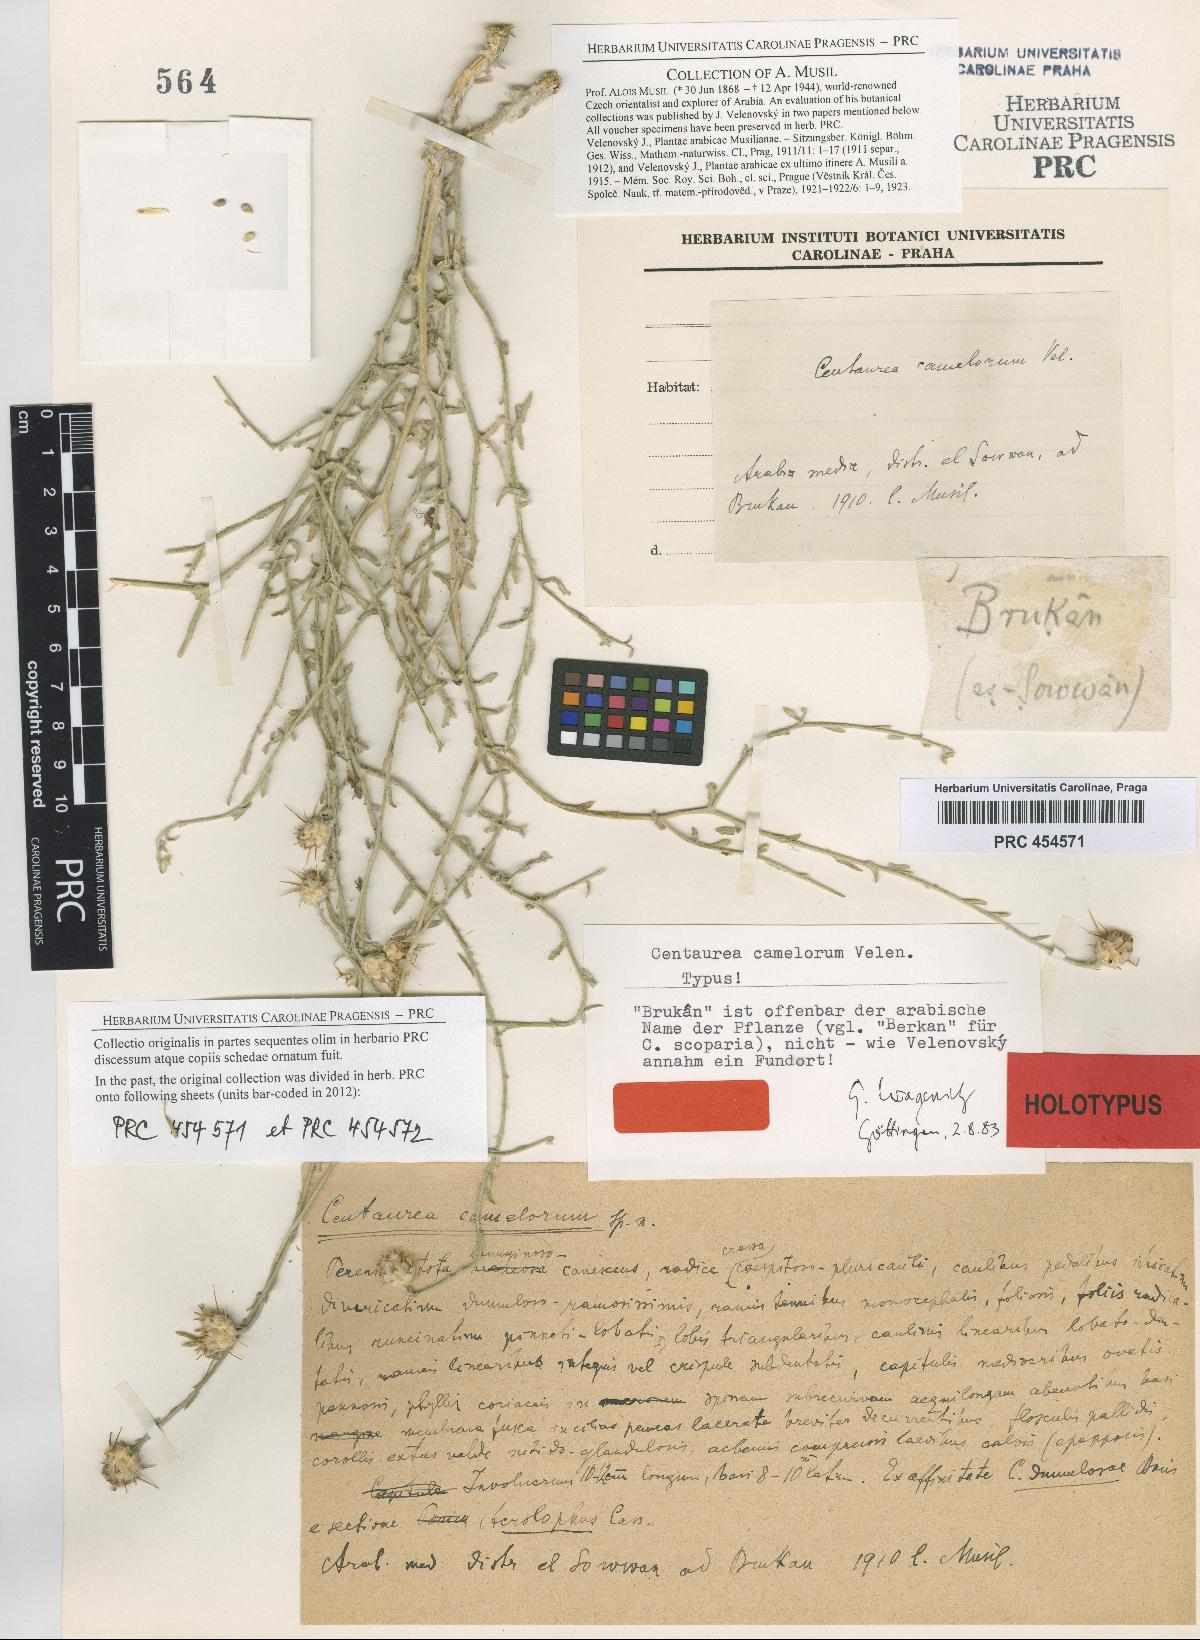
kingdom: Plantae
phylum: Tracheophyta
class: Magnoliopsida
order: Asterales
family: Asteraceae
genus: Centaurea
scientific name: Centaurea camelorum
